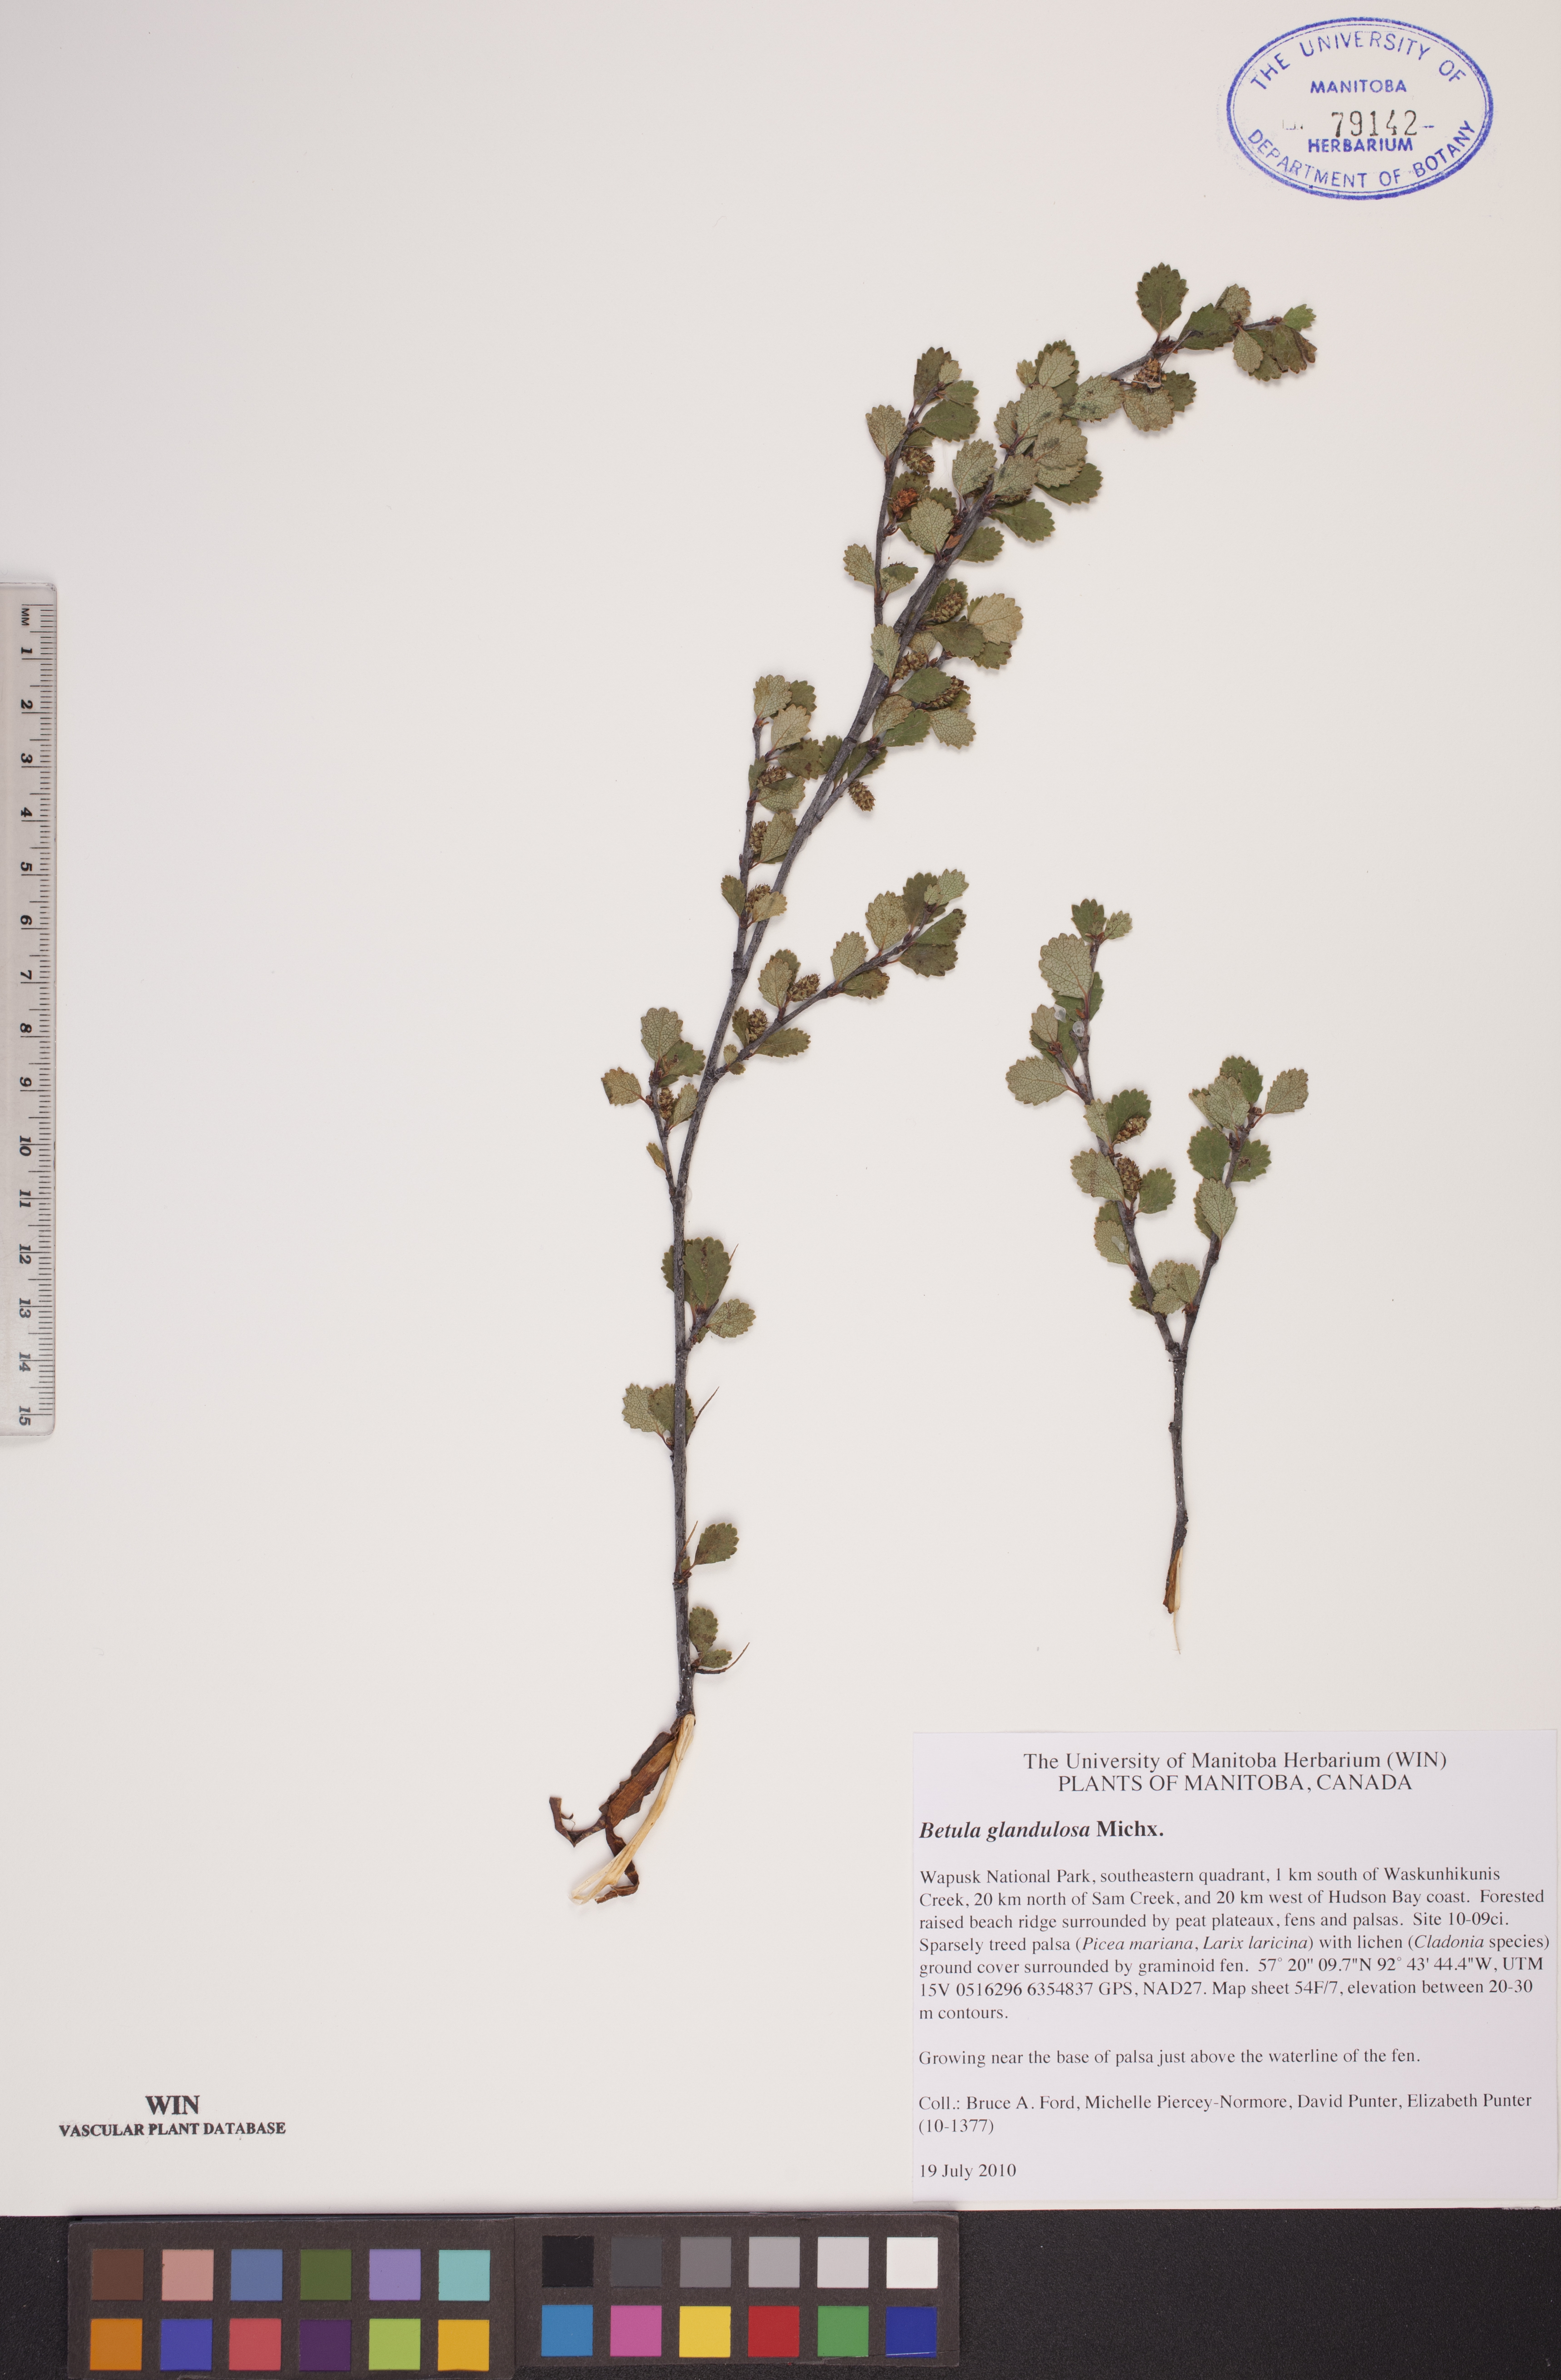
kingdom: Plantae
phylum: Tracheophyta
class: Magnoliopsida
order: Fagales
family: Betulaceae
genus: Betula
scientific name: Betula glandulosa
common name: Dwarf birch
